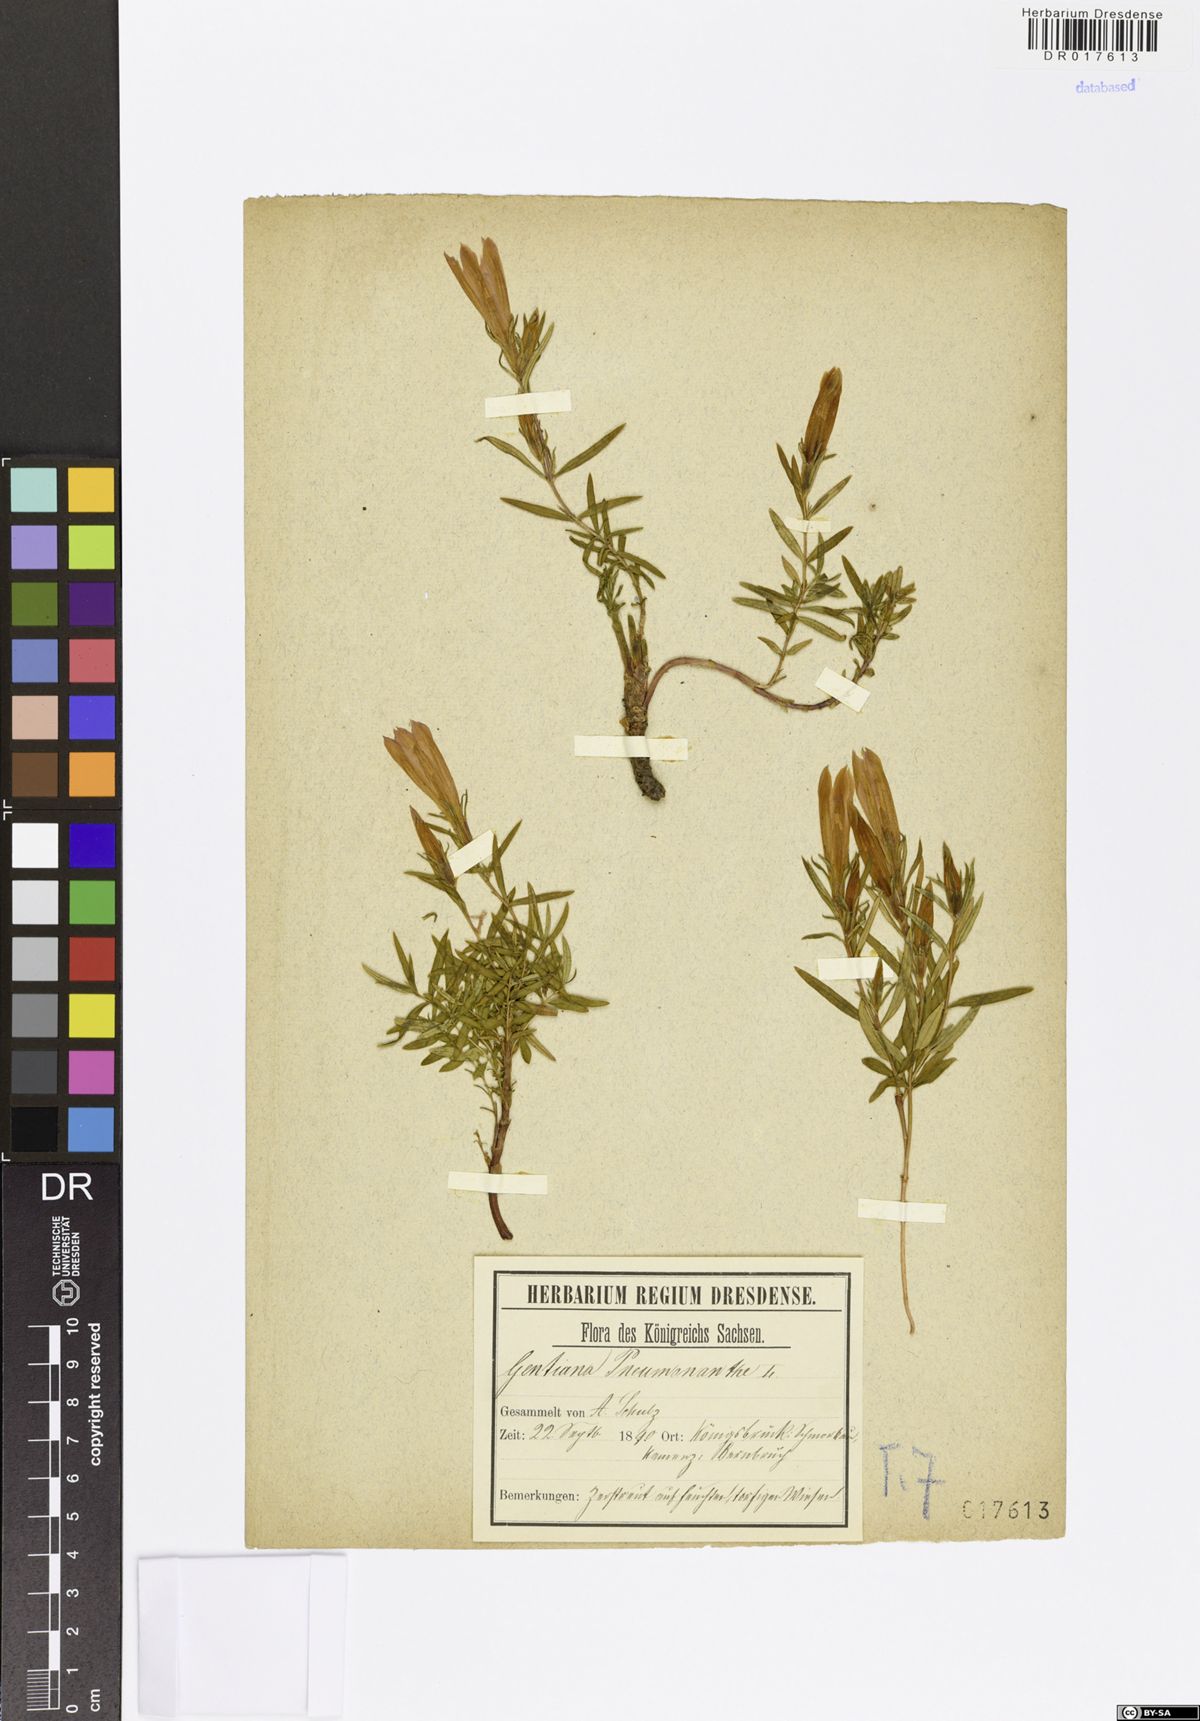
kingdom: Plantae
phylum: Tracheophyta
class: Magnoliopsida
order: Gentianales
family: Gentianaceae
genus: Gentiana
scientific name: Gentiana pneumonanthe
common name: Marsh gentian
